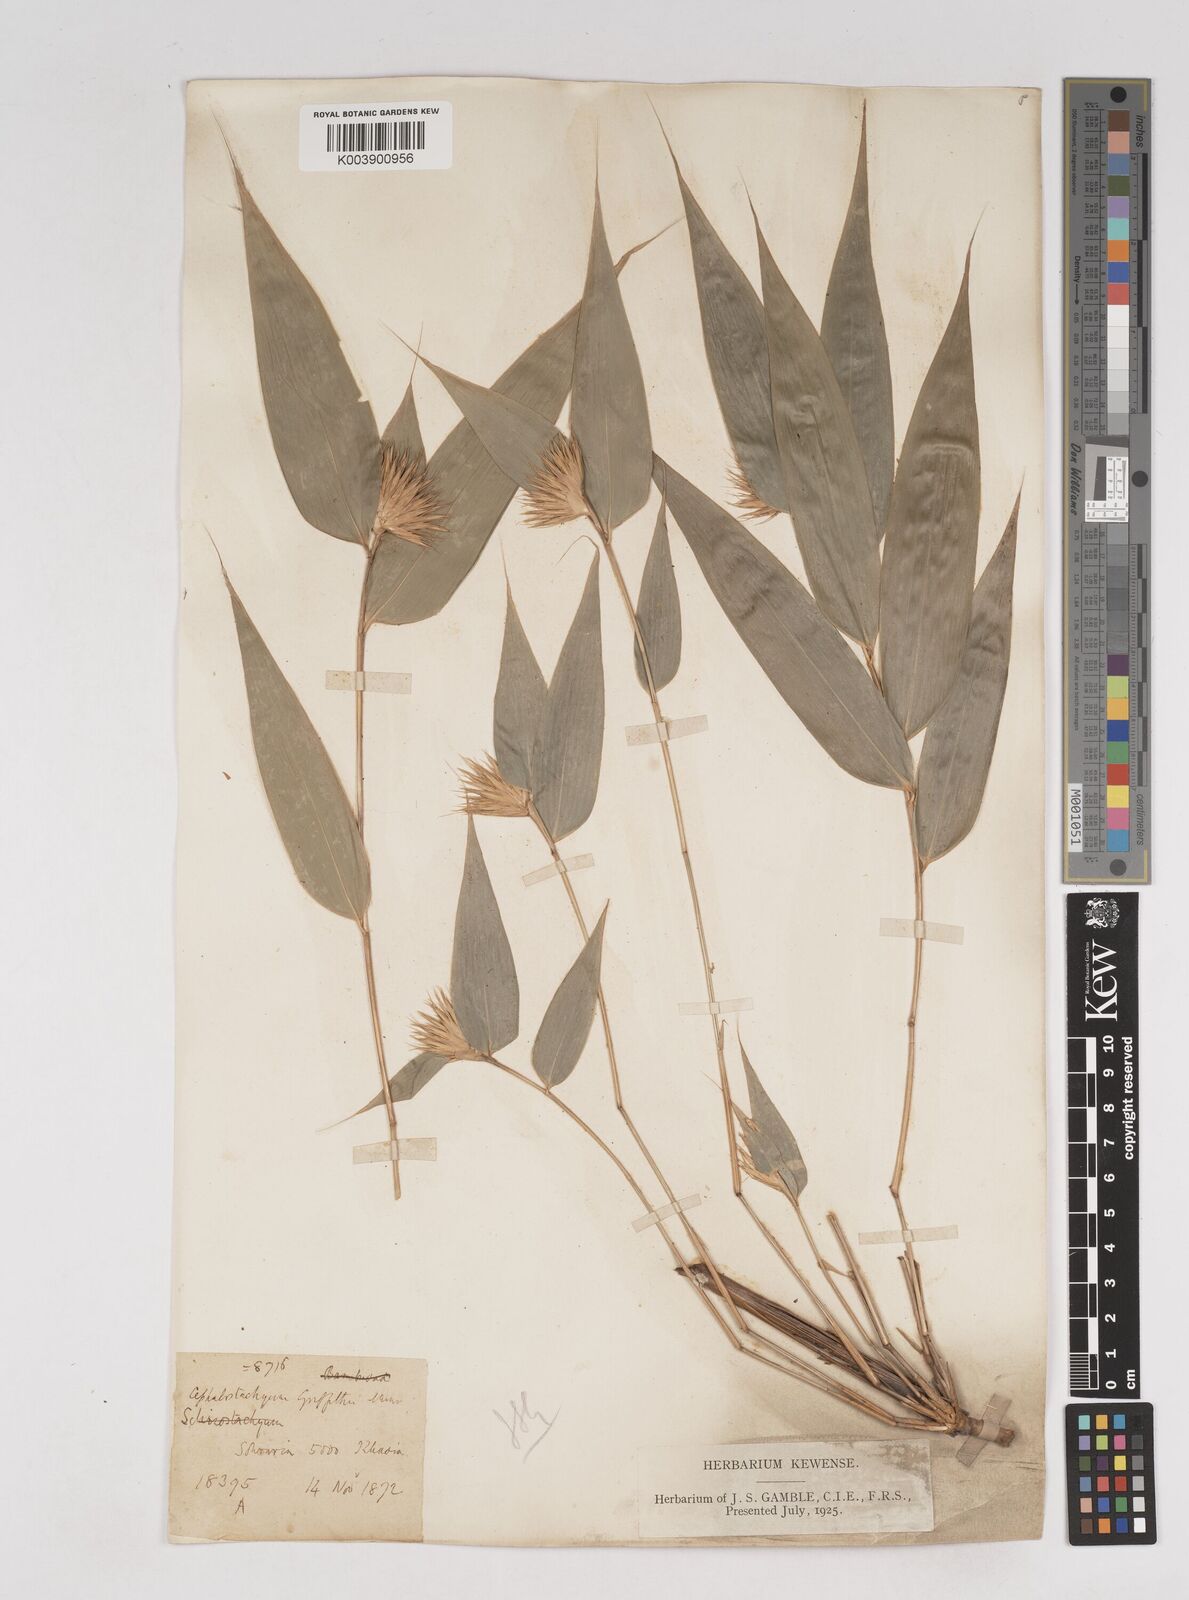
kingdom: Plantae
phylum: Tracheophyta
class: Liliopsida
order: Poales
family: Poaceae
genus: Cephalostachyum
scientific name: Cephalostachyum
